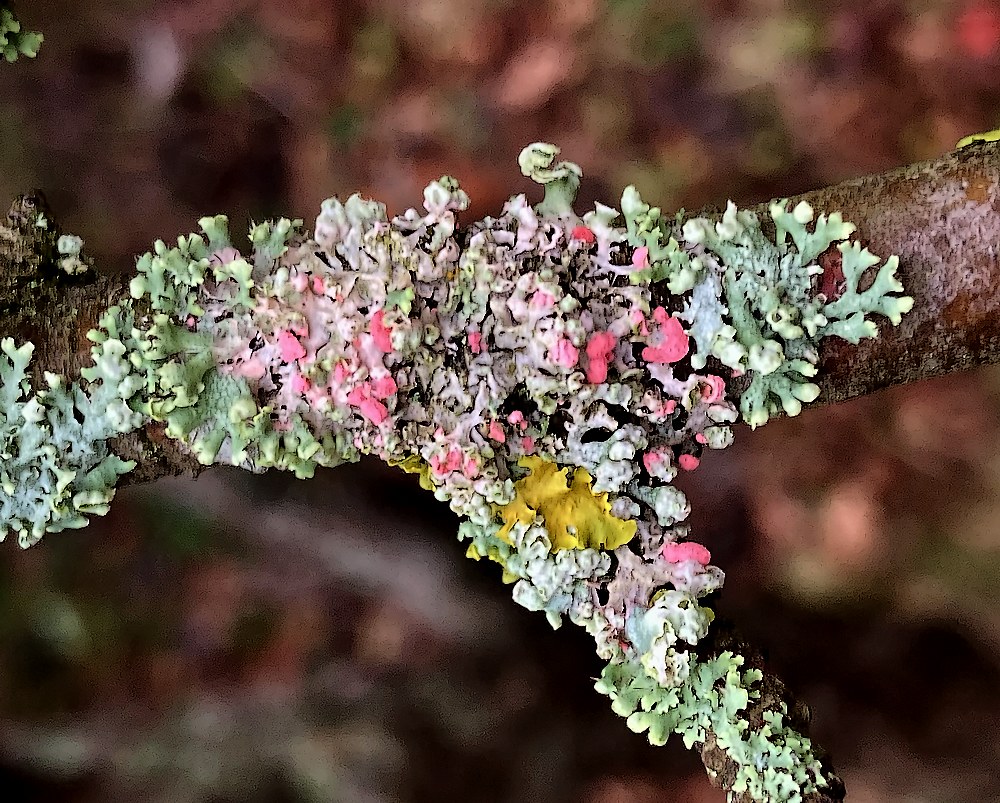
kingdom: Fungi
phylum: Ascomycota
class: Sordariomycetes
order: Hypocreales
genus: Illosporiopsis
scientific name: Illosporiopsis christiansenii
